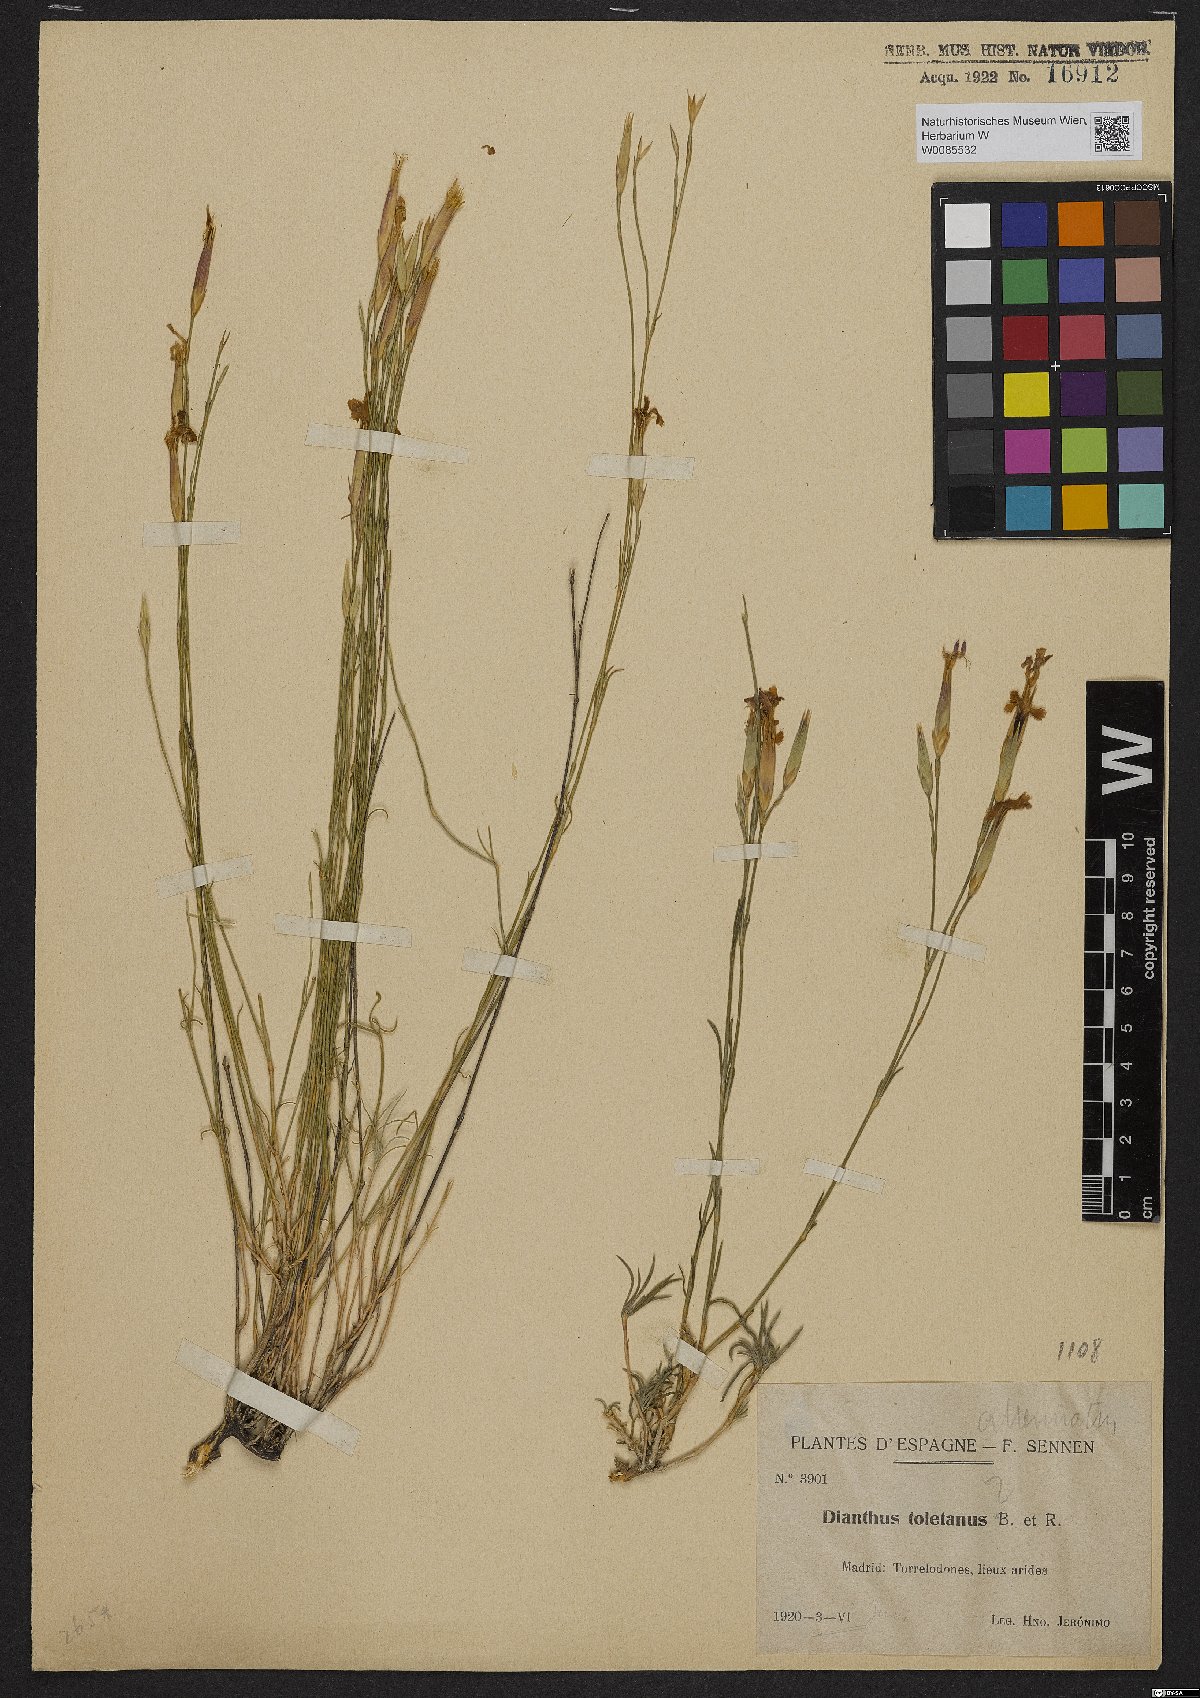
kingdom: Plantae
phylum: Tracheophyta
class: Magnoliopsida
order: Caryophyllales
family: Caryophyllaceae
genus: Dianthus
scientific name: Dianthus pyrenaicus
